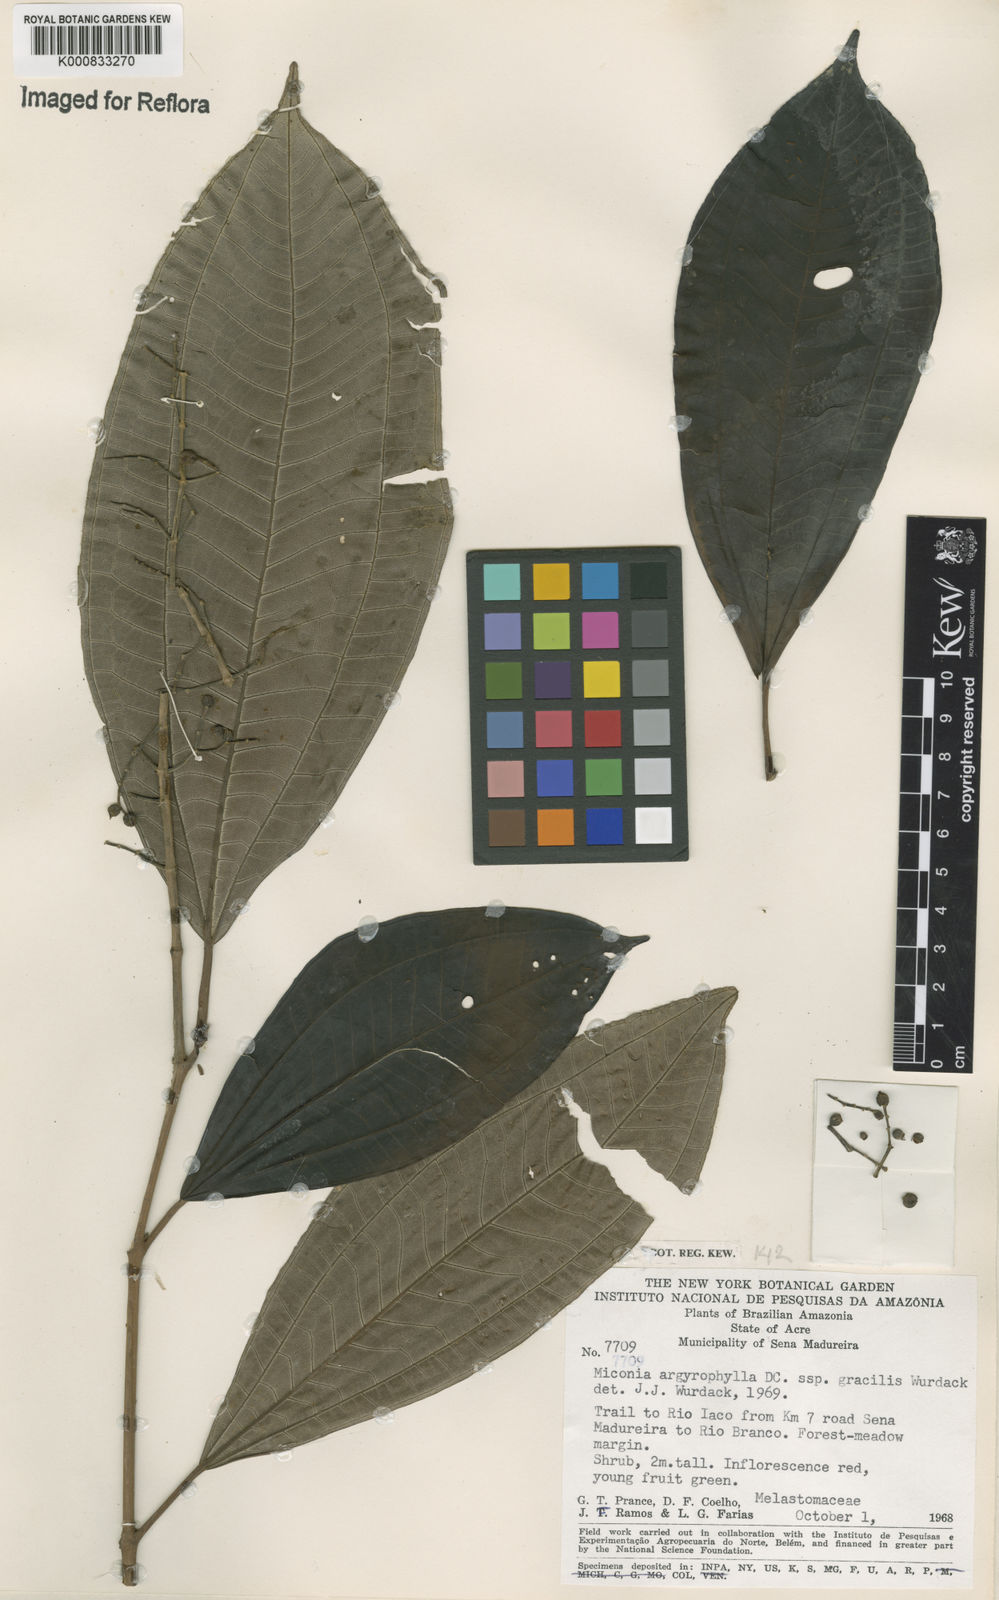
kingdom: Plantae
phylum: Tracheophyta
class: Magnoliopsida
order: Myrtales
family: Melastomataceae
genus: Miconia
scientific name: Miconia argyrophylla
